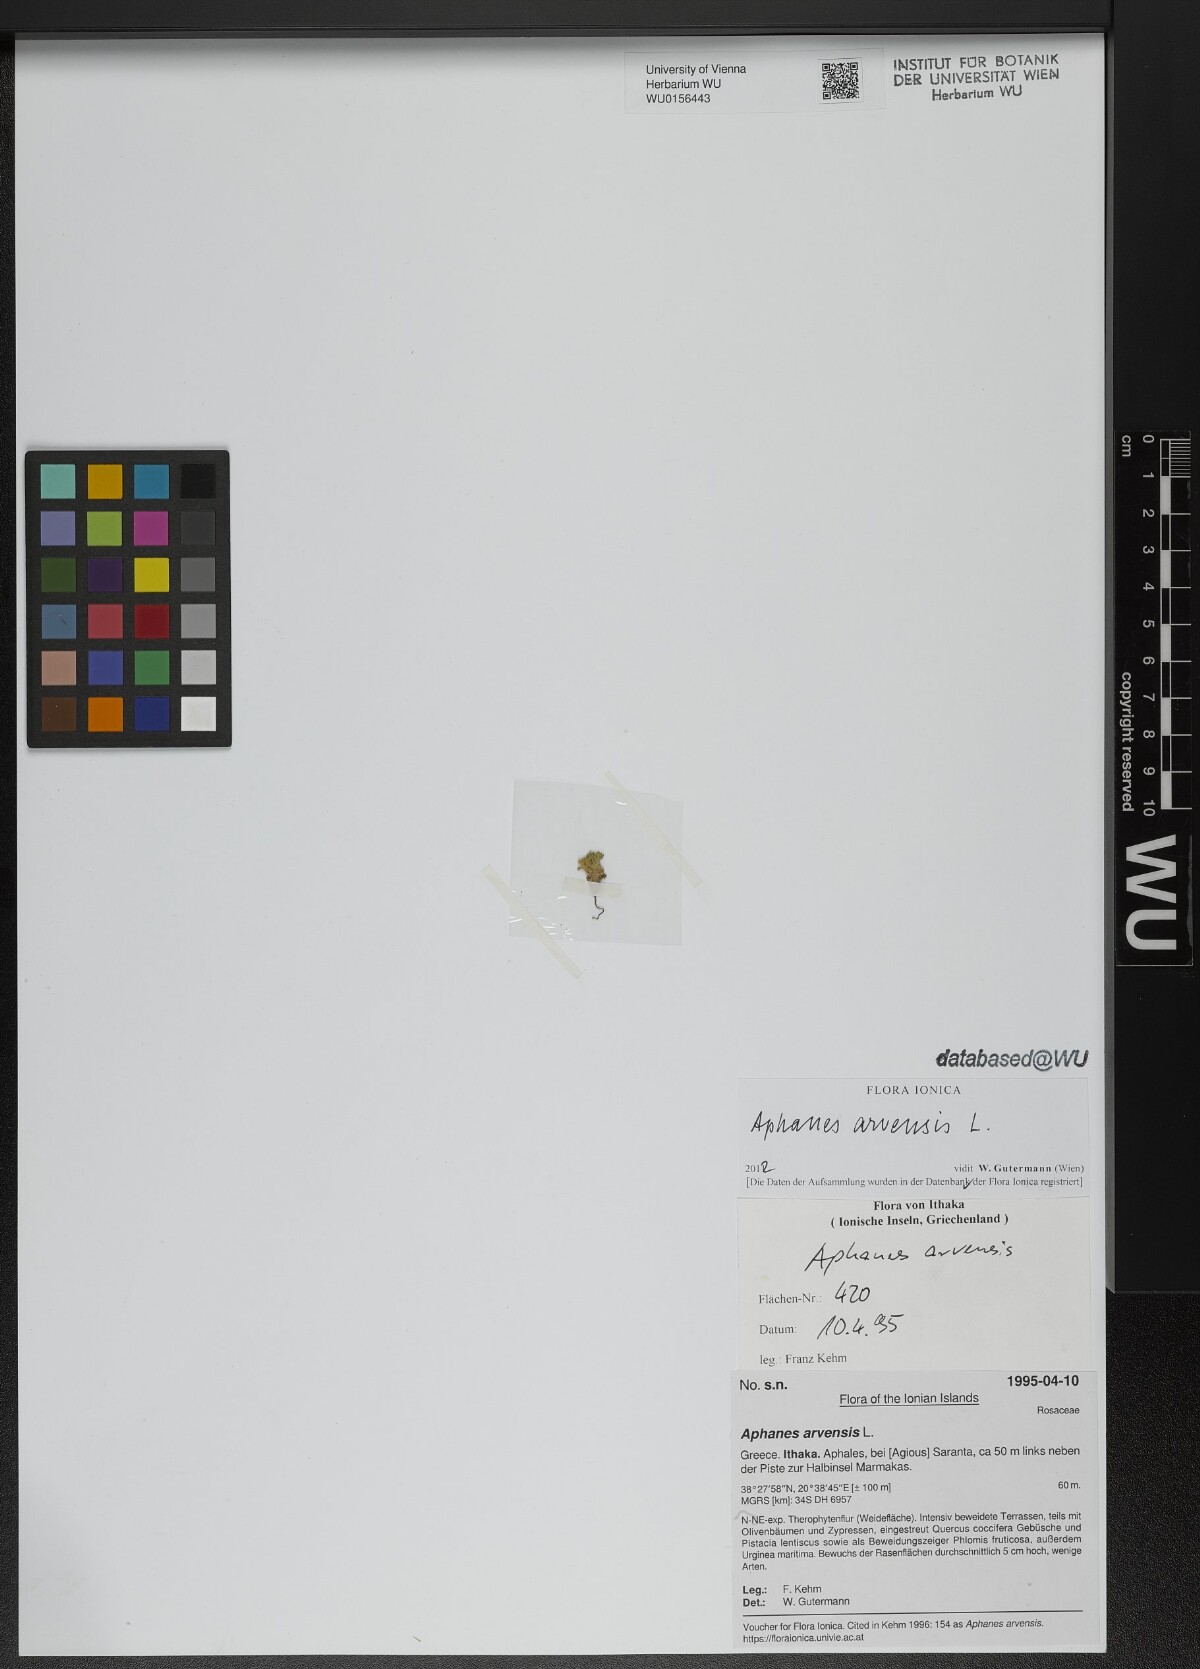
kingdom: Plantae
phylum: Tracheophyta
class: Magnoliopsida
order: Rosales
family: Rosaceae
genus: Aphanes
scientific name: Aphanes arvensis
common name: Parsley-piert
